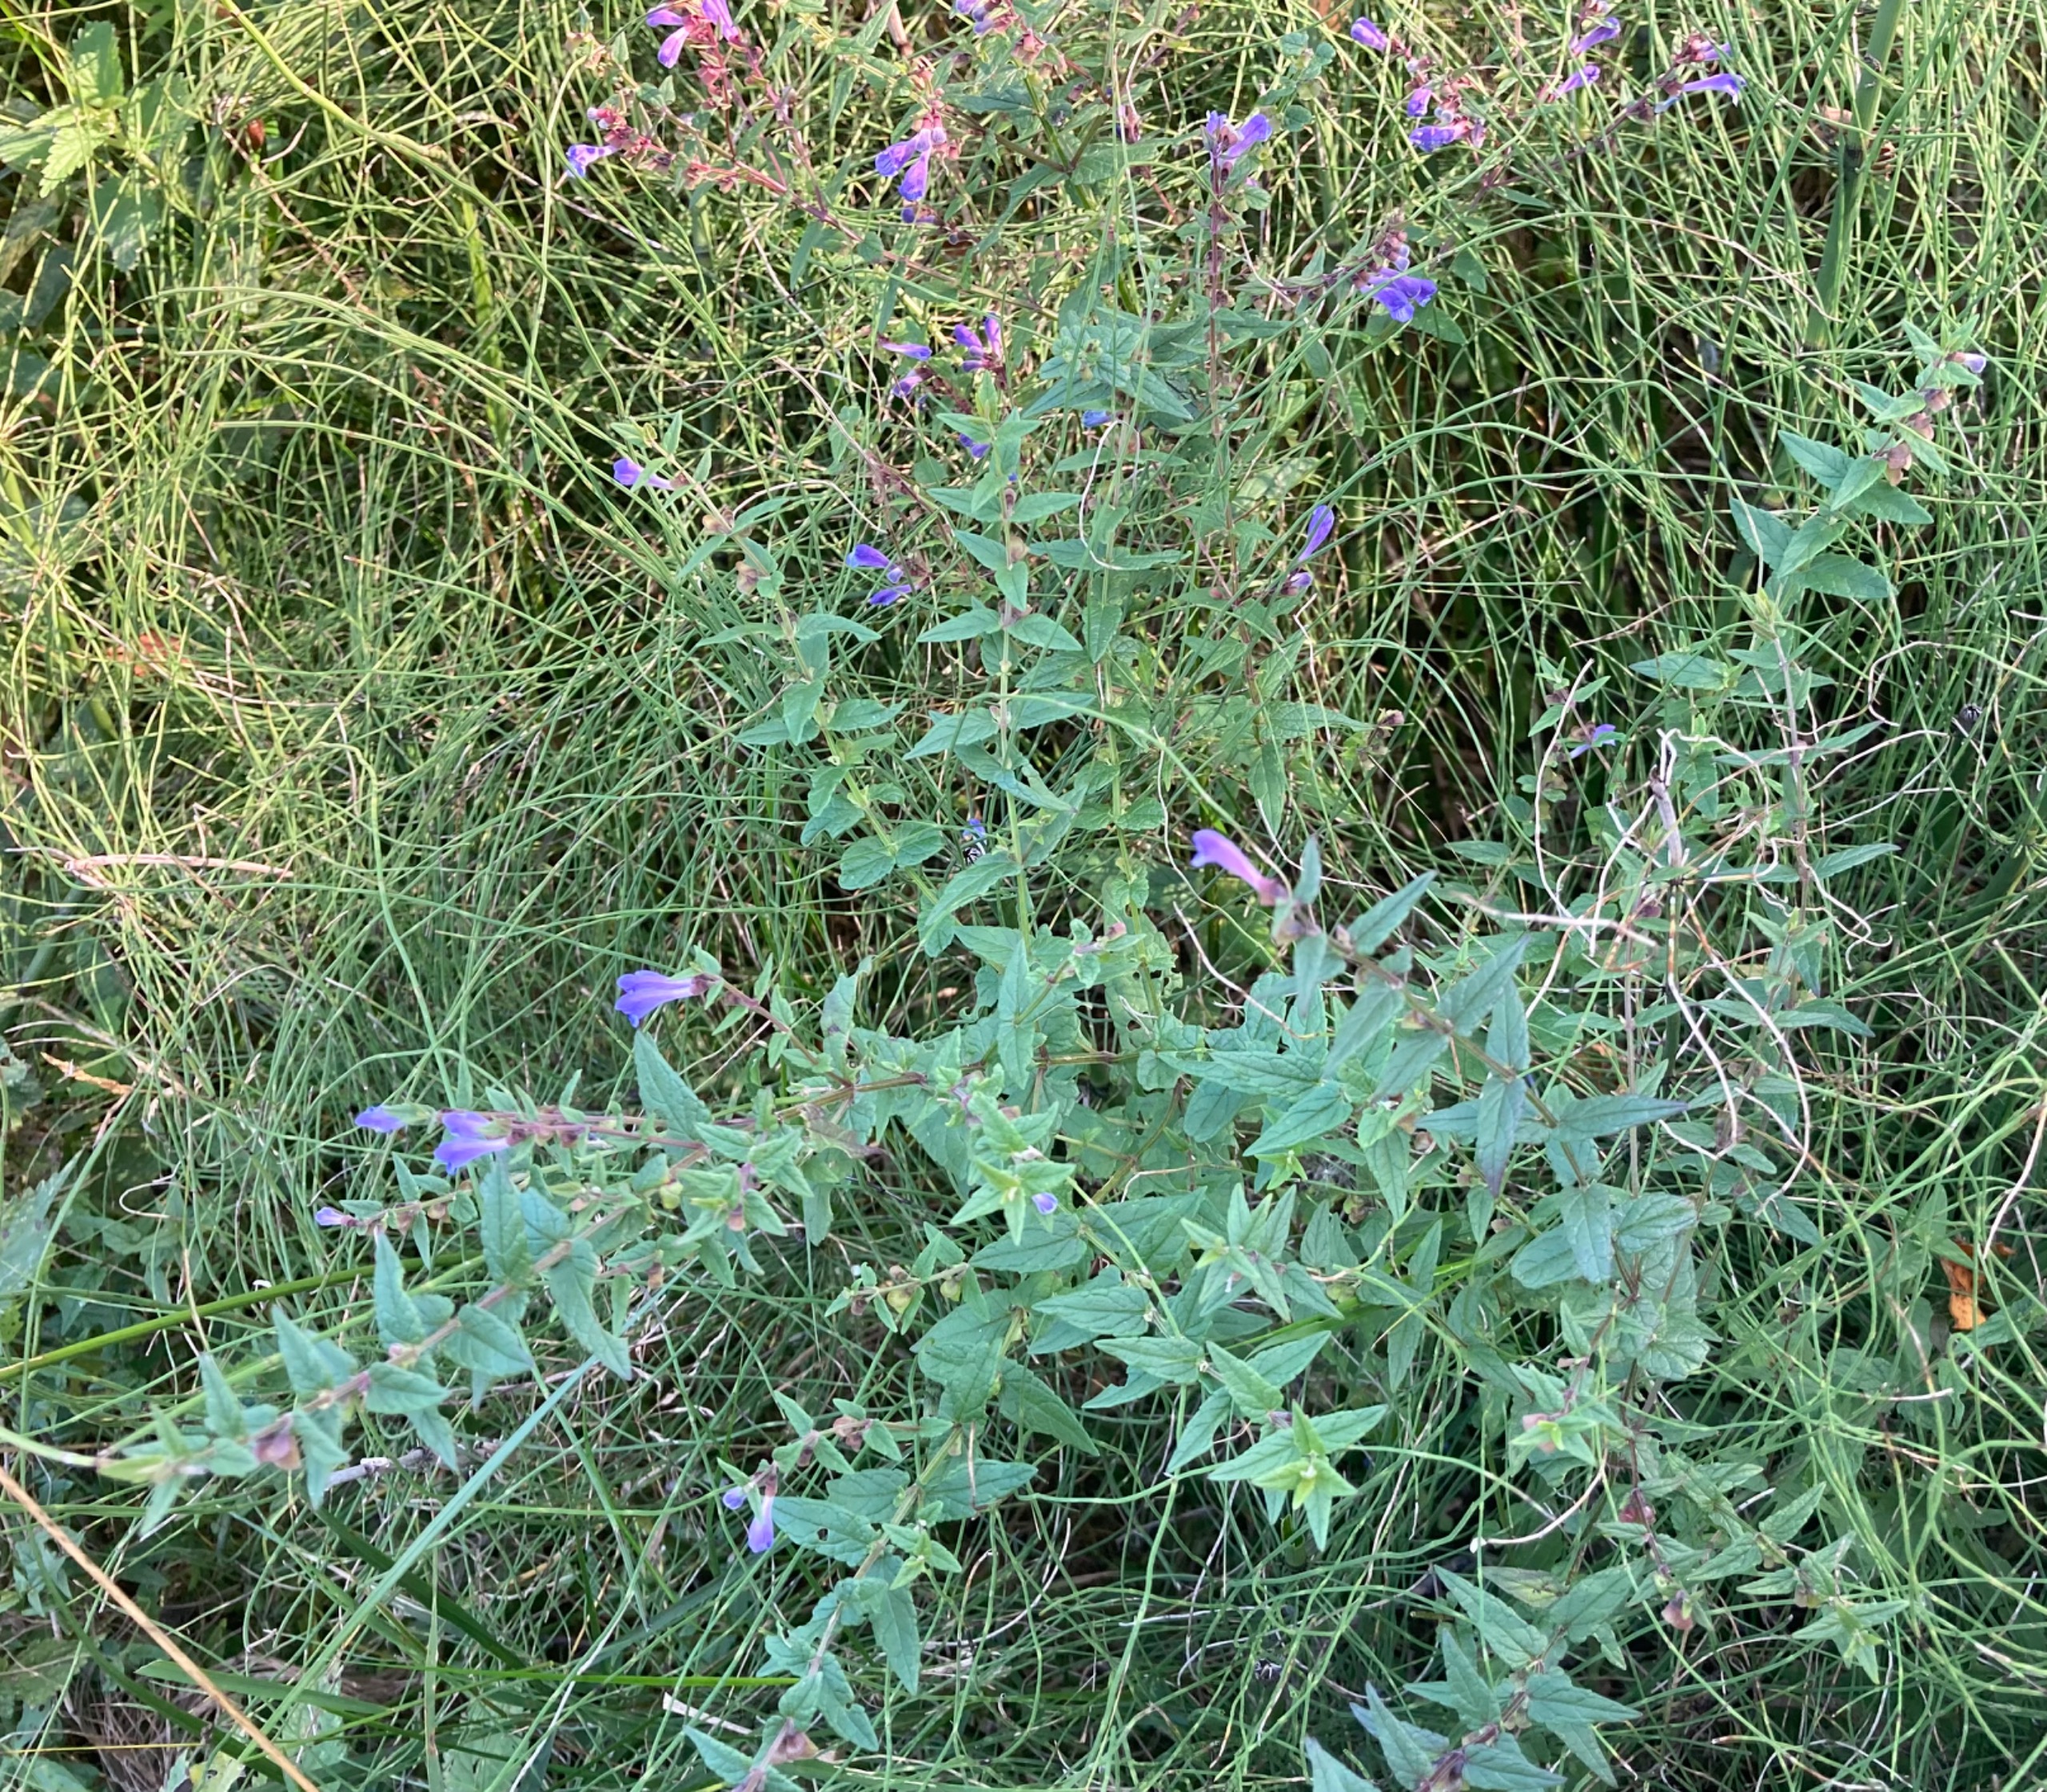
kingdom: Plantae
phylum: Tracheophyta
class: Magnoliopsida
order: Lamiales
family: Lamiaceae
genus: Scutellaria
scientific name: Scutellaria galericulata
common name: Almindelig skjolddrager
